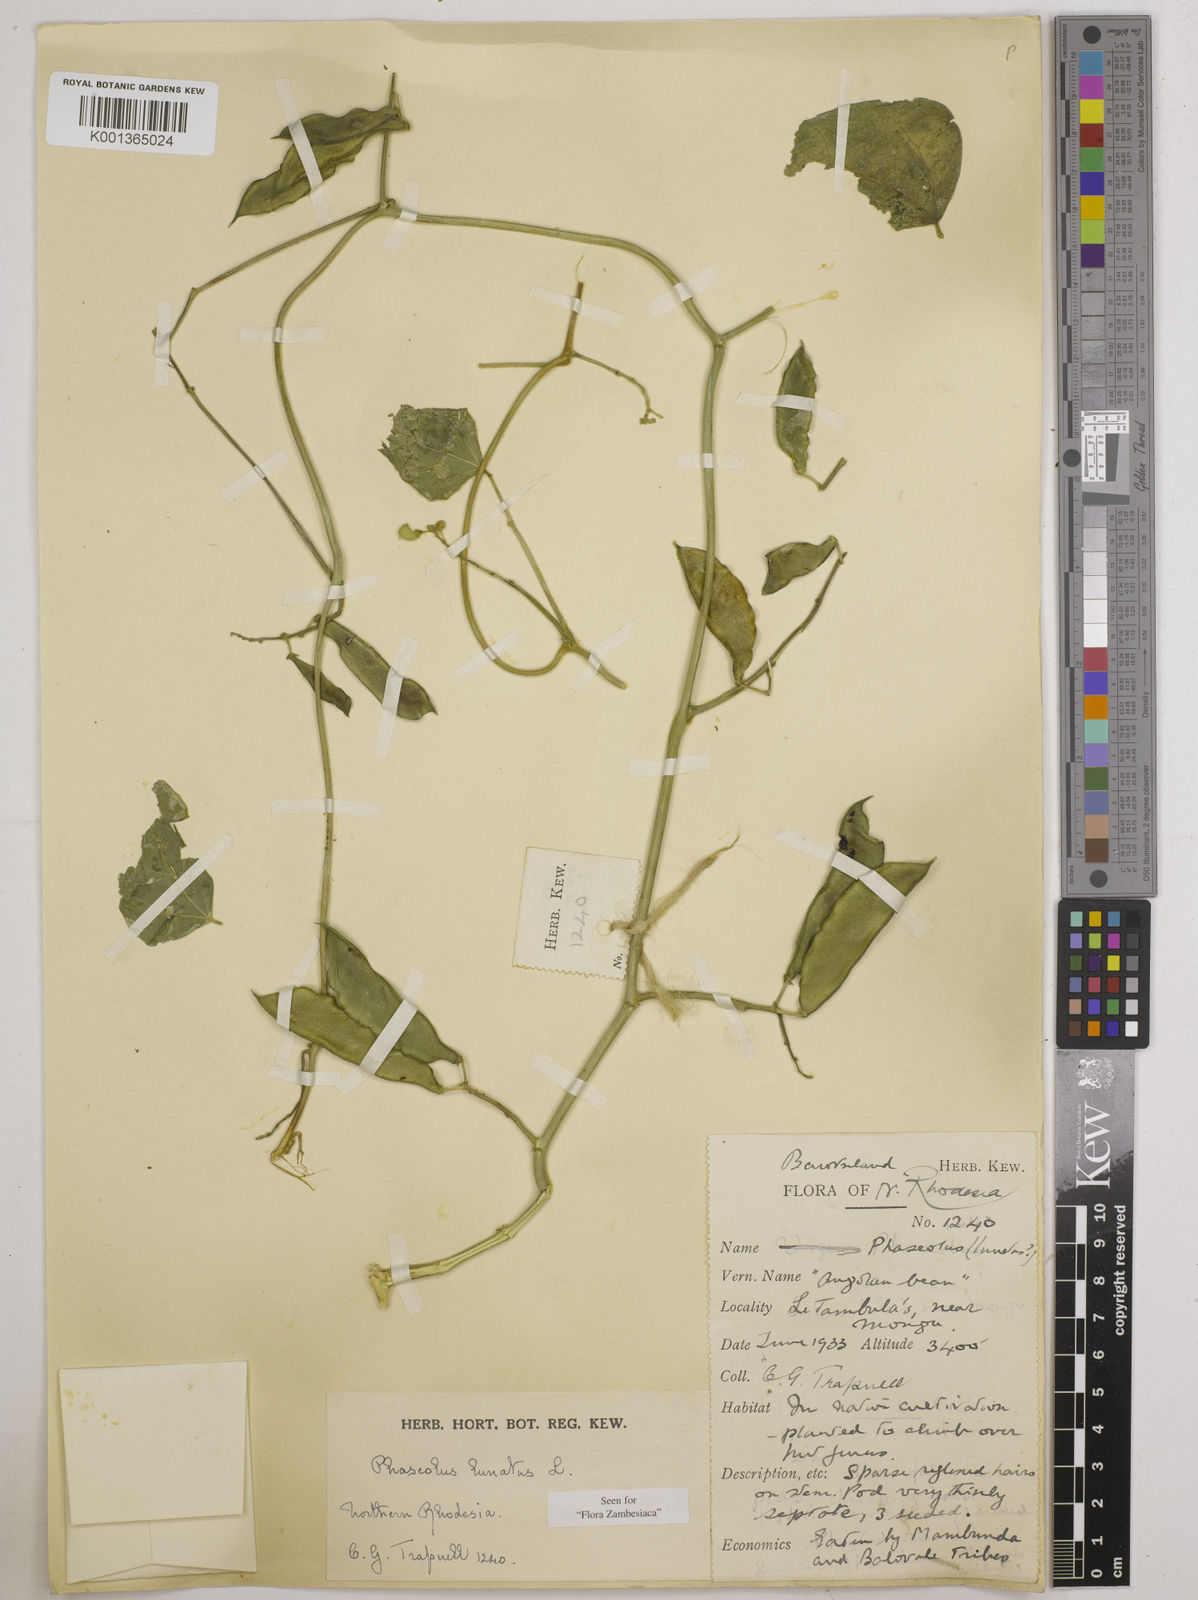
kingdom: Plantae
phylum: Tracheophyta
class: Magnoliopsida
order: Fabales
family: Fabaceae
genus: Phaseolus
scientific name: Phaseolus lunatus
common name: Sieva bean
